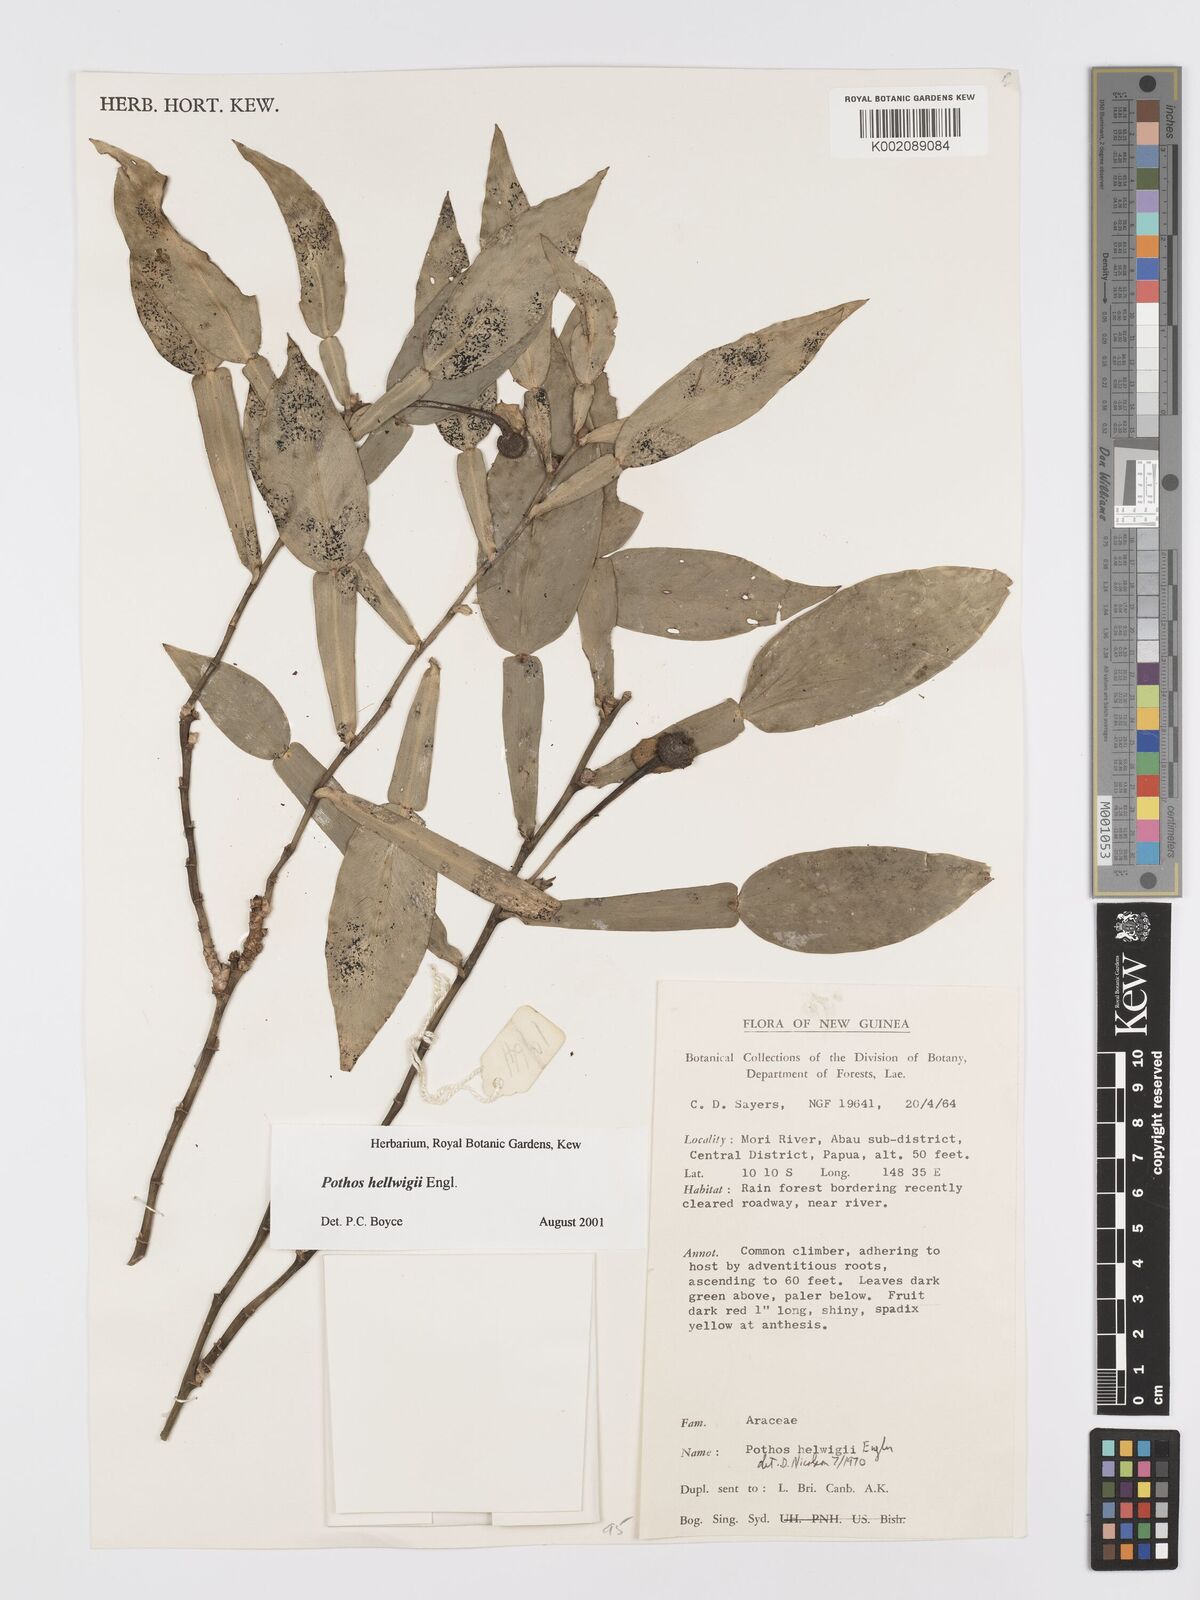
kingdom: Plantae
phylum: Tracheophyta
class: Liliopsida
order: Alismatales
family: Araceae
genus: Pothos
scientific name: Pothos hellwigii
